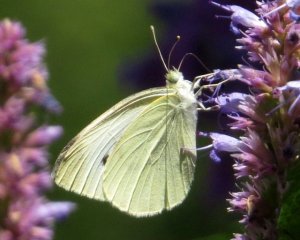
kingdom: Animalia
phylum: Arthropoda
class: Insecta
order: Lepidoptera
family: Pieridae
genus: Pieris
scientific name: Pieris rapae
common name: Cabbage White
